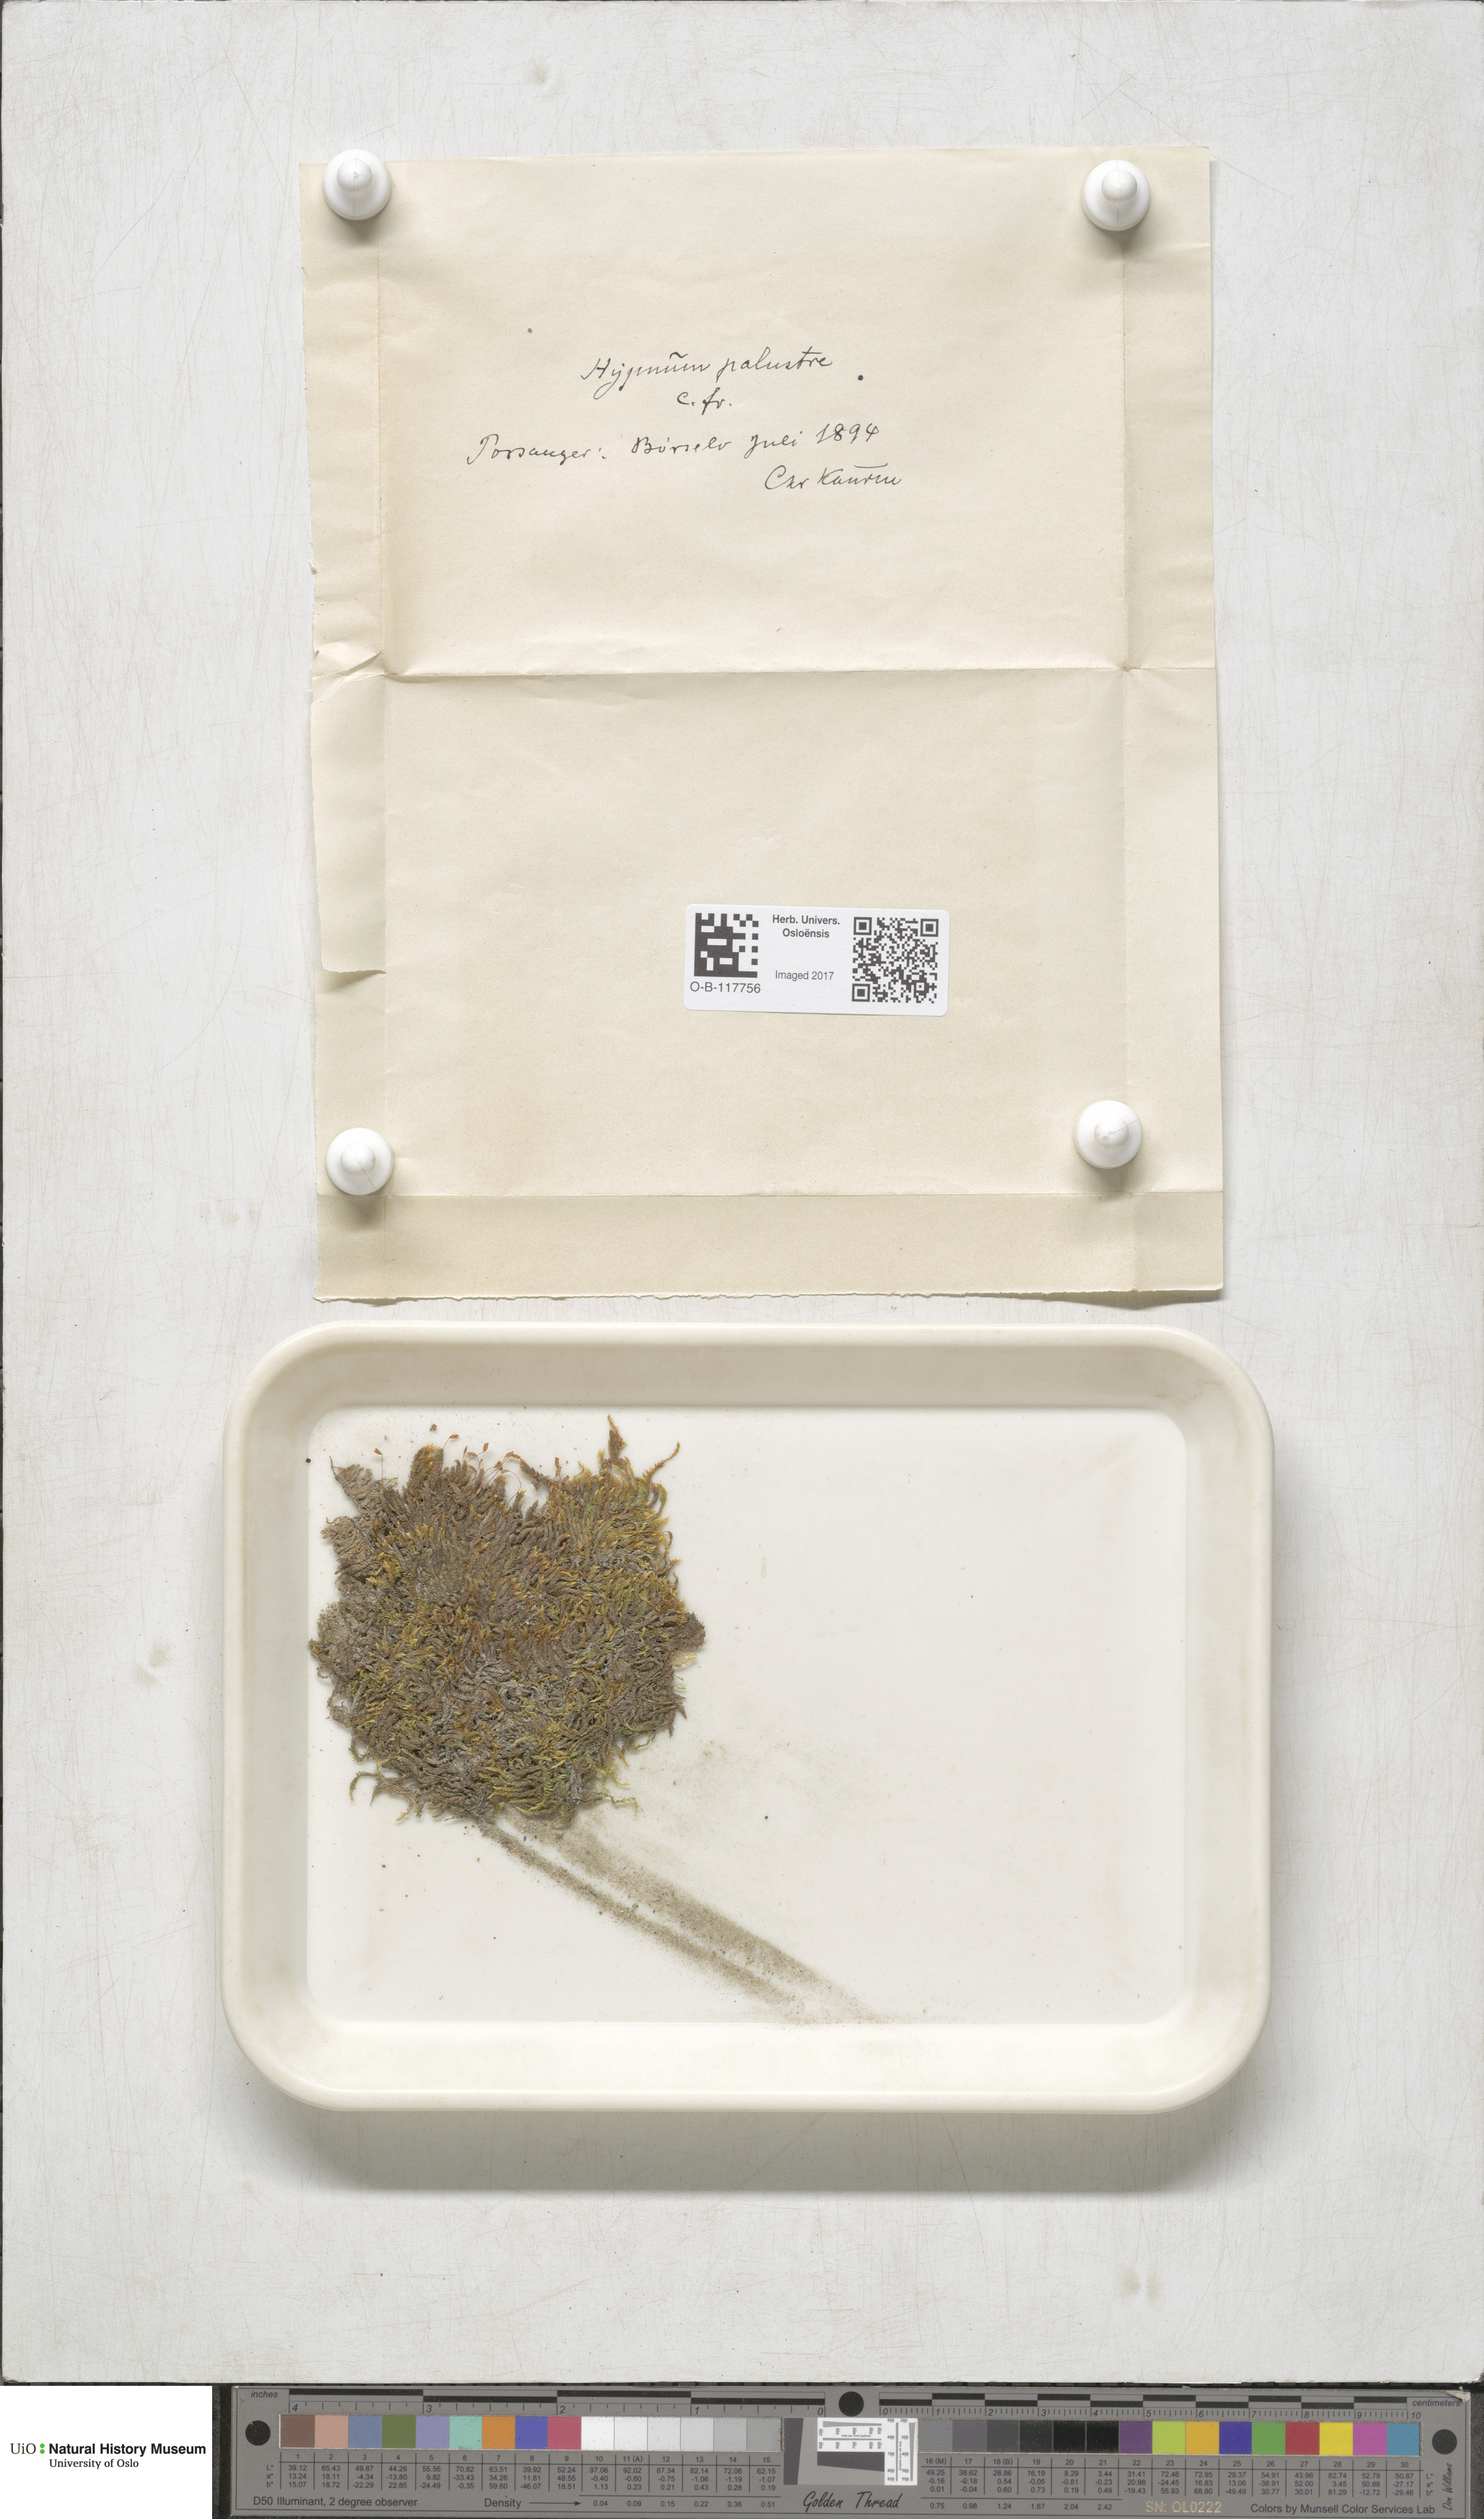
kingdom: Plantae
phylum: Bryophyta
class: Bryopsida
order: Hypnales
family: Amblystegiaceae
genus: Hygrohypnum
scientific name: Hygrohypnum luridum
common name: Drab brook moss
